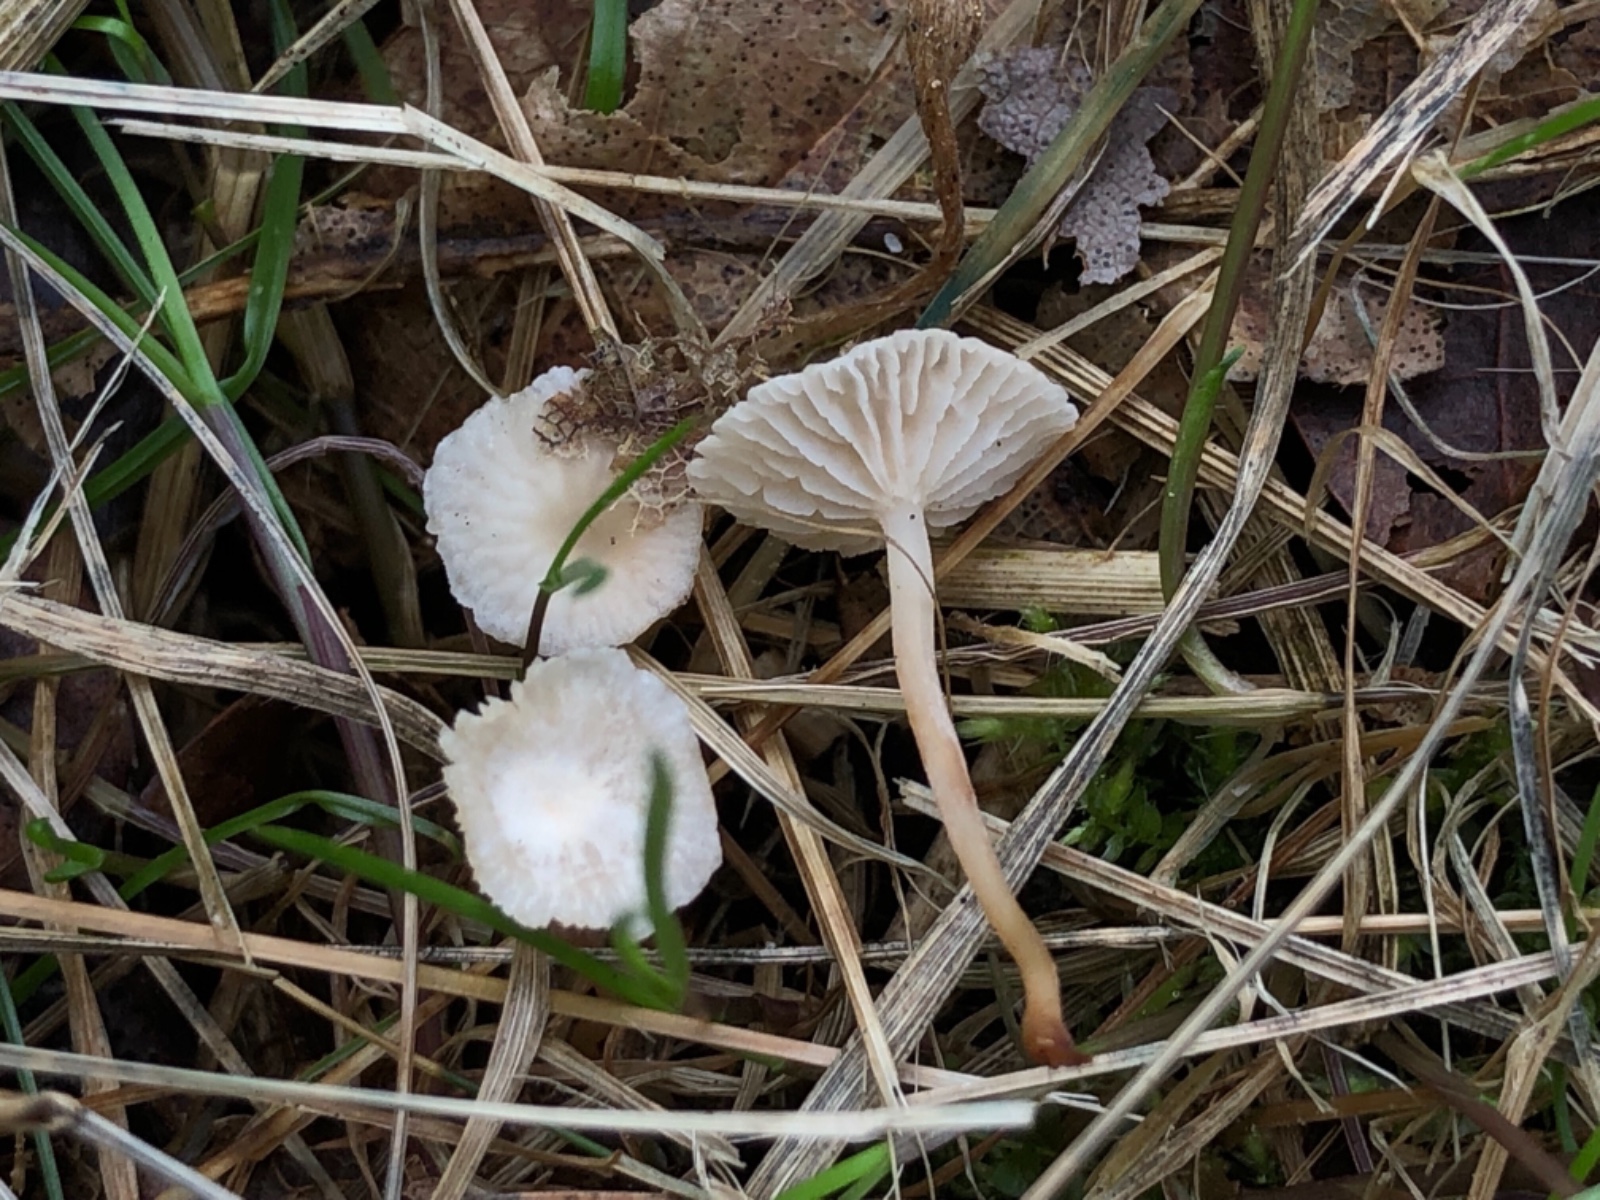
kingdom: Fungi
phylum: Basidiomycota
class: Agaricomycetes
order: Agaricales
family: Omphalotaceae
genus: Collybiopsis
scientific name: Collybiopsis vaillantii
